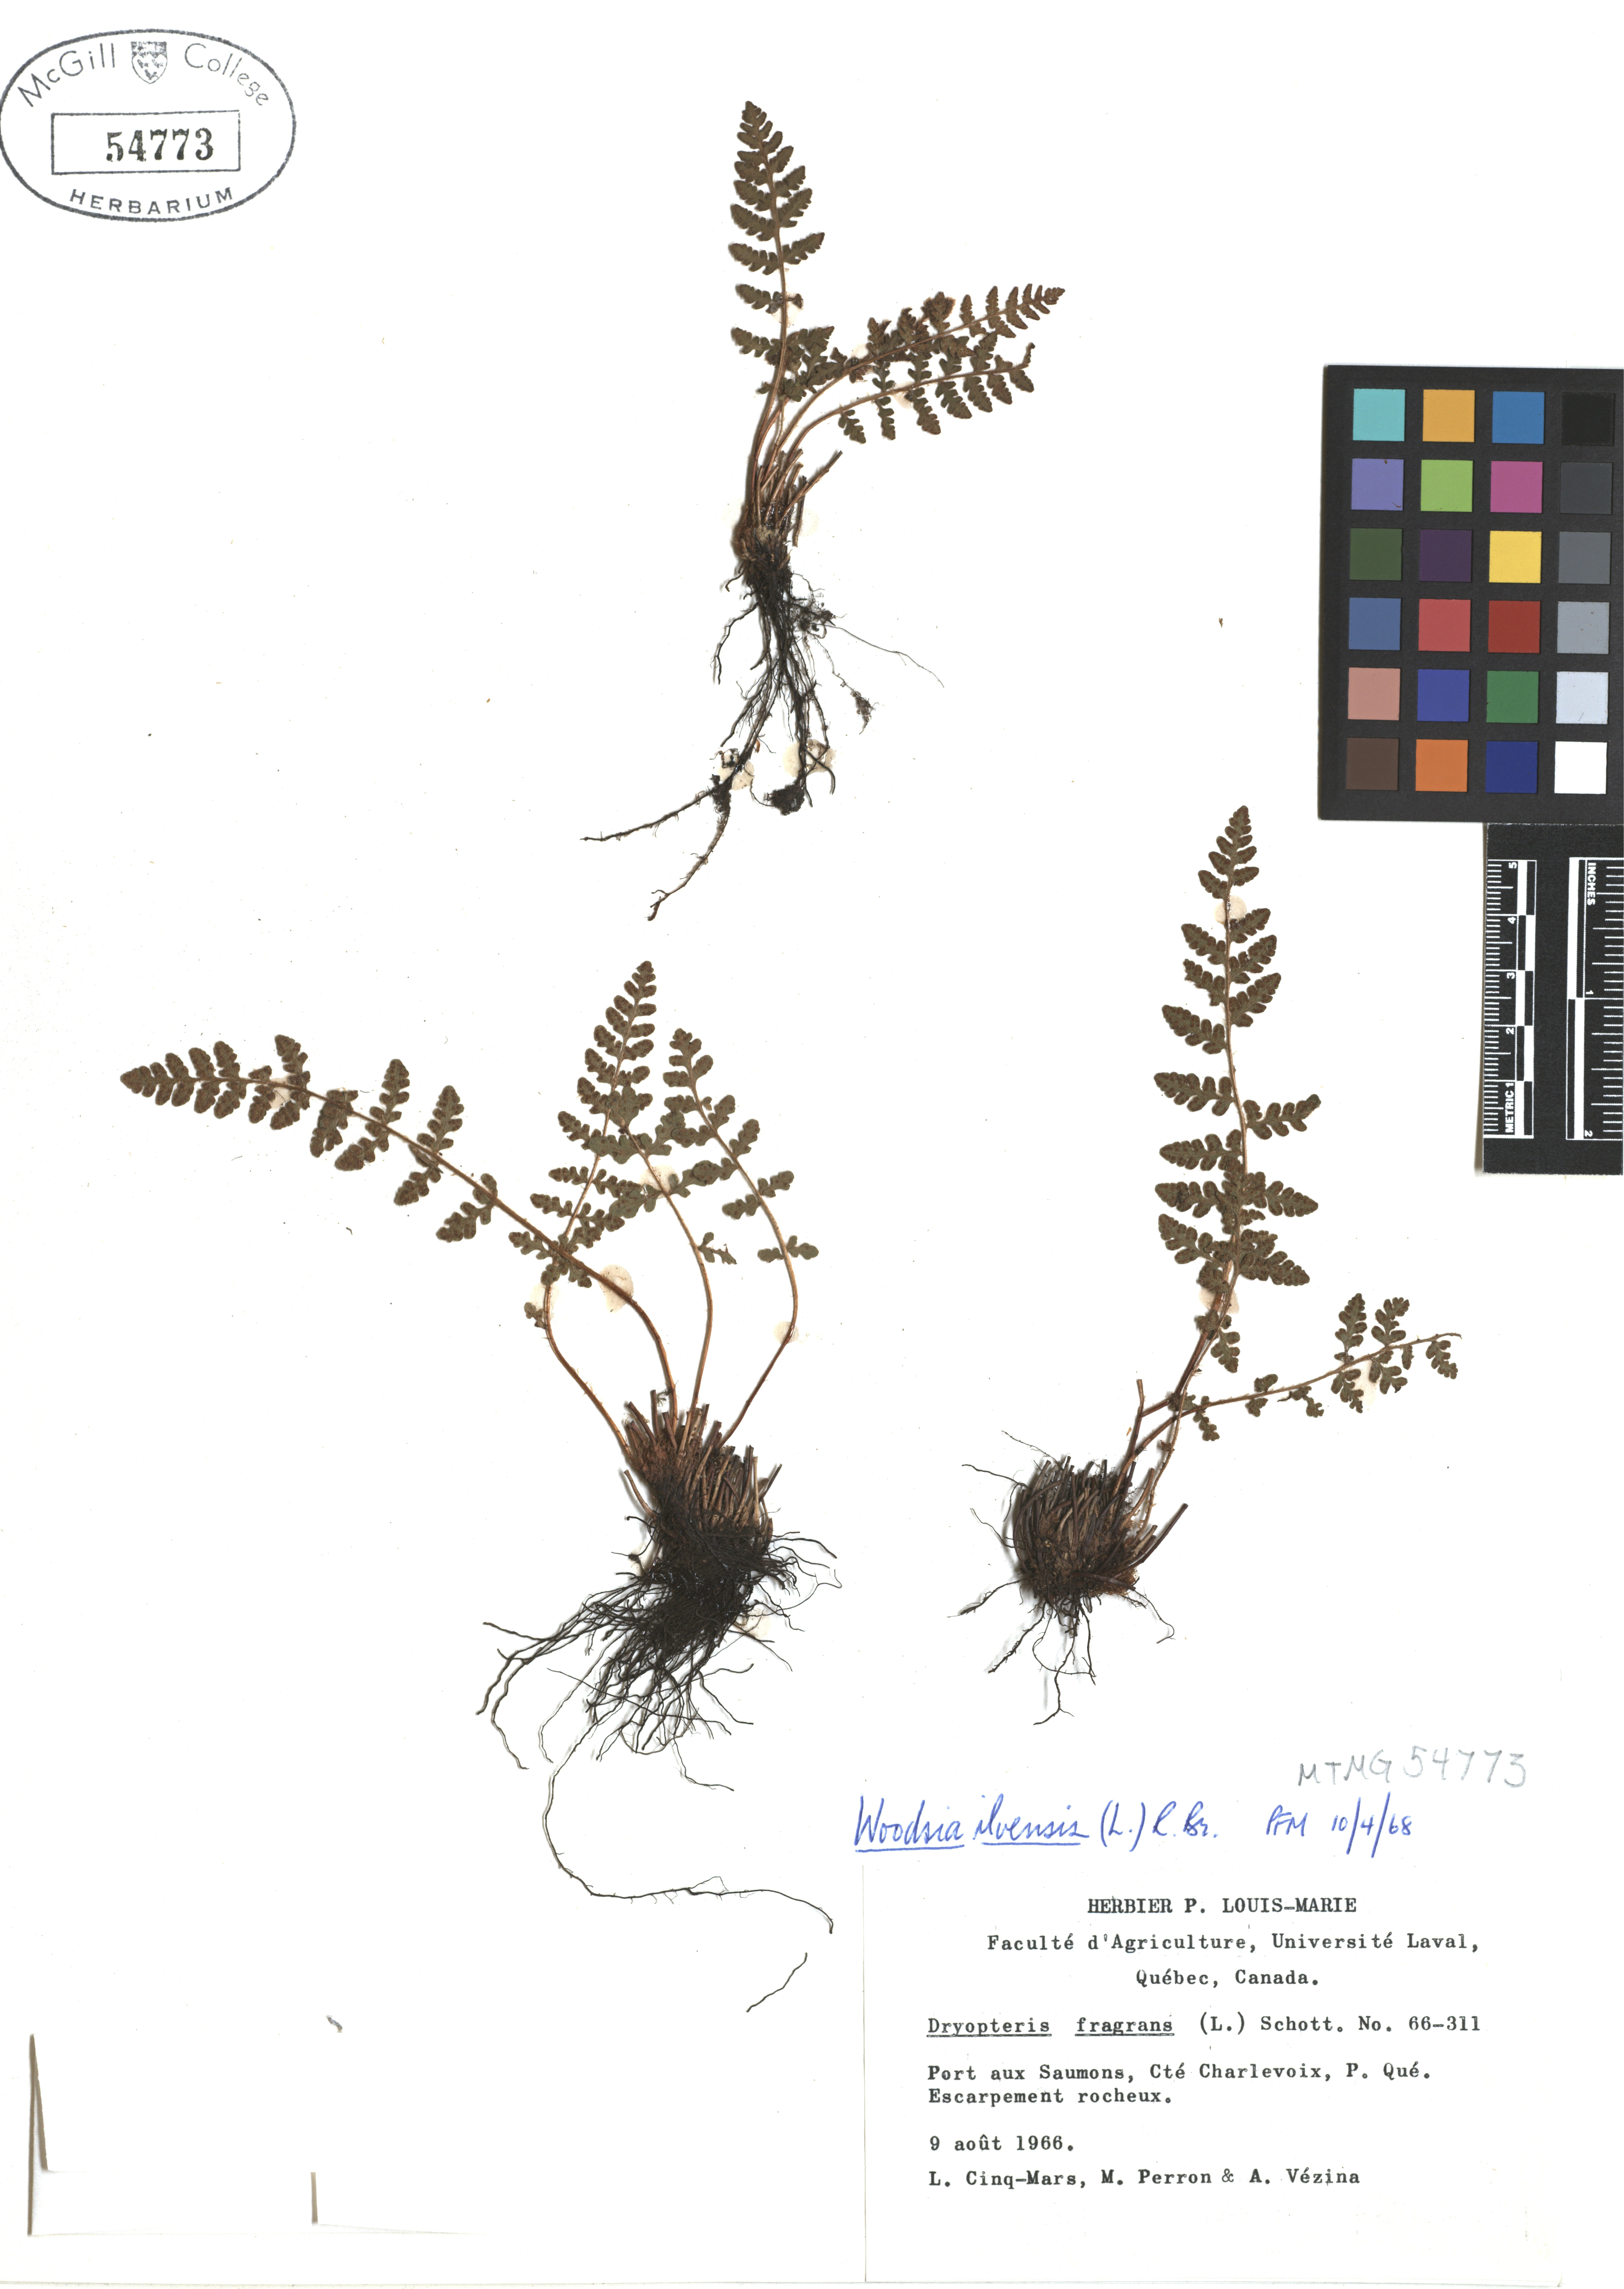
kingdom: Plantae
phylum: Tracheophyta
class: Polypodiopsida
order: Polypodiales
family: Woodsiaceae
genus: Woodsia
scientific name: Woodsia ilvensis
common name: Fragrant woodsia
